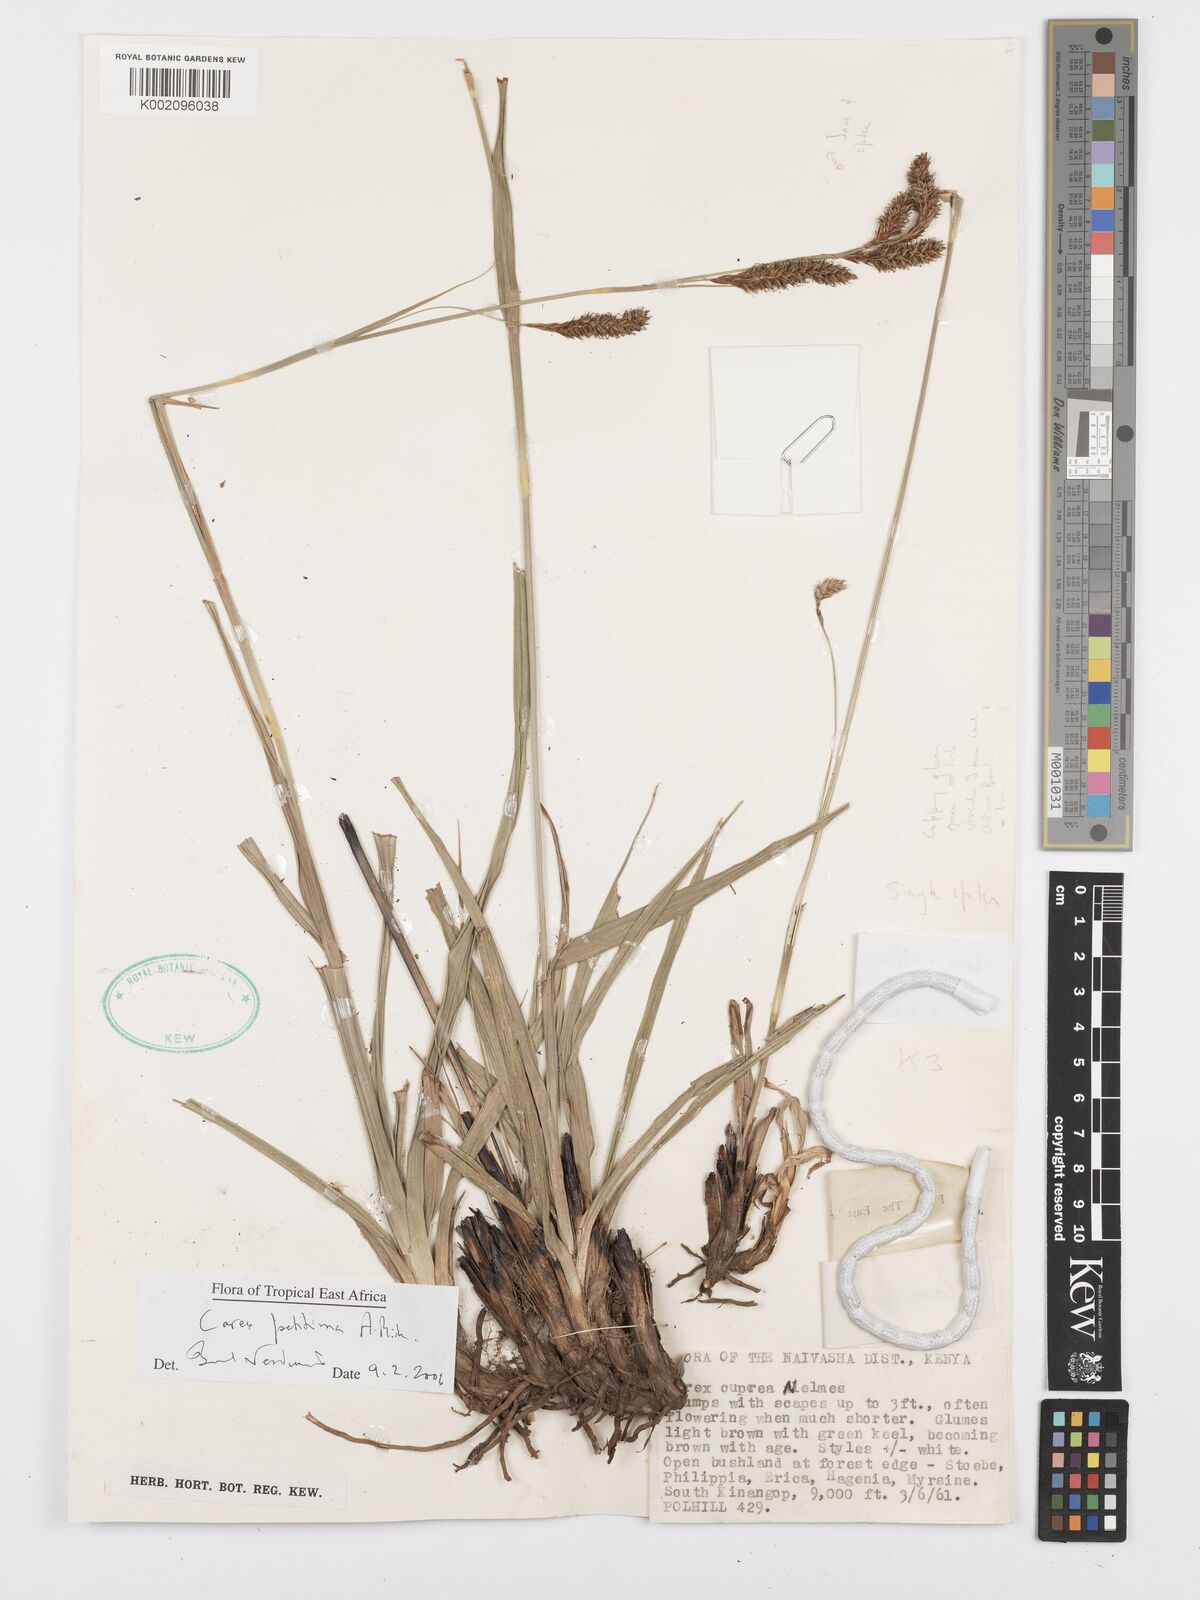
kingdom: Plantae
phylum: Tracheophyta
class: Liliopsida
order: Poales
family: Cyperaceae
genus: Carex
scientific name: Carex petitiana
